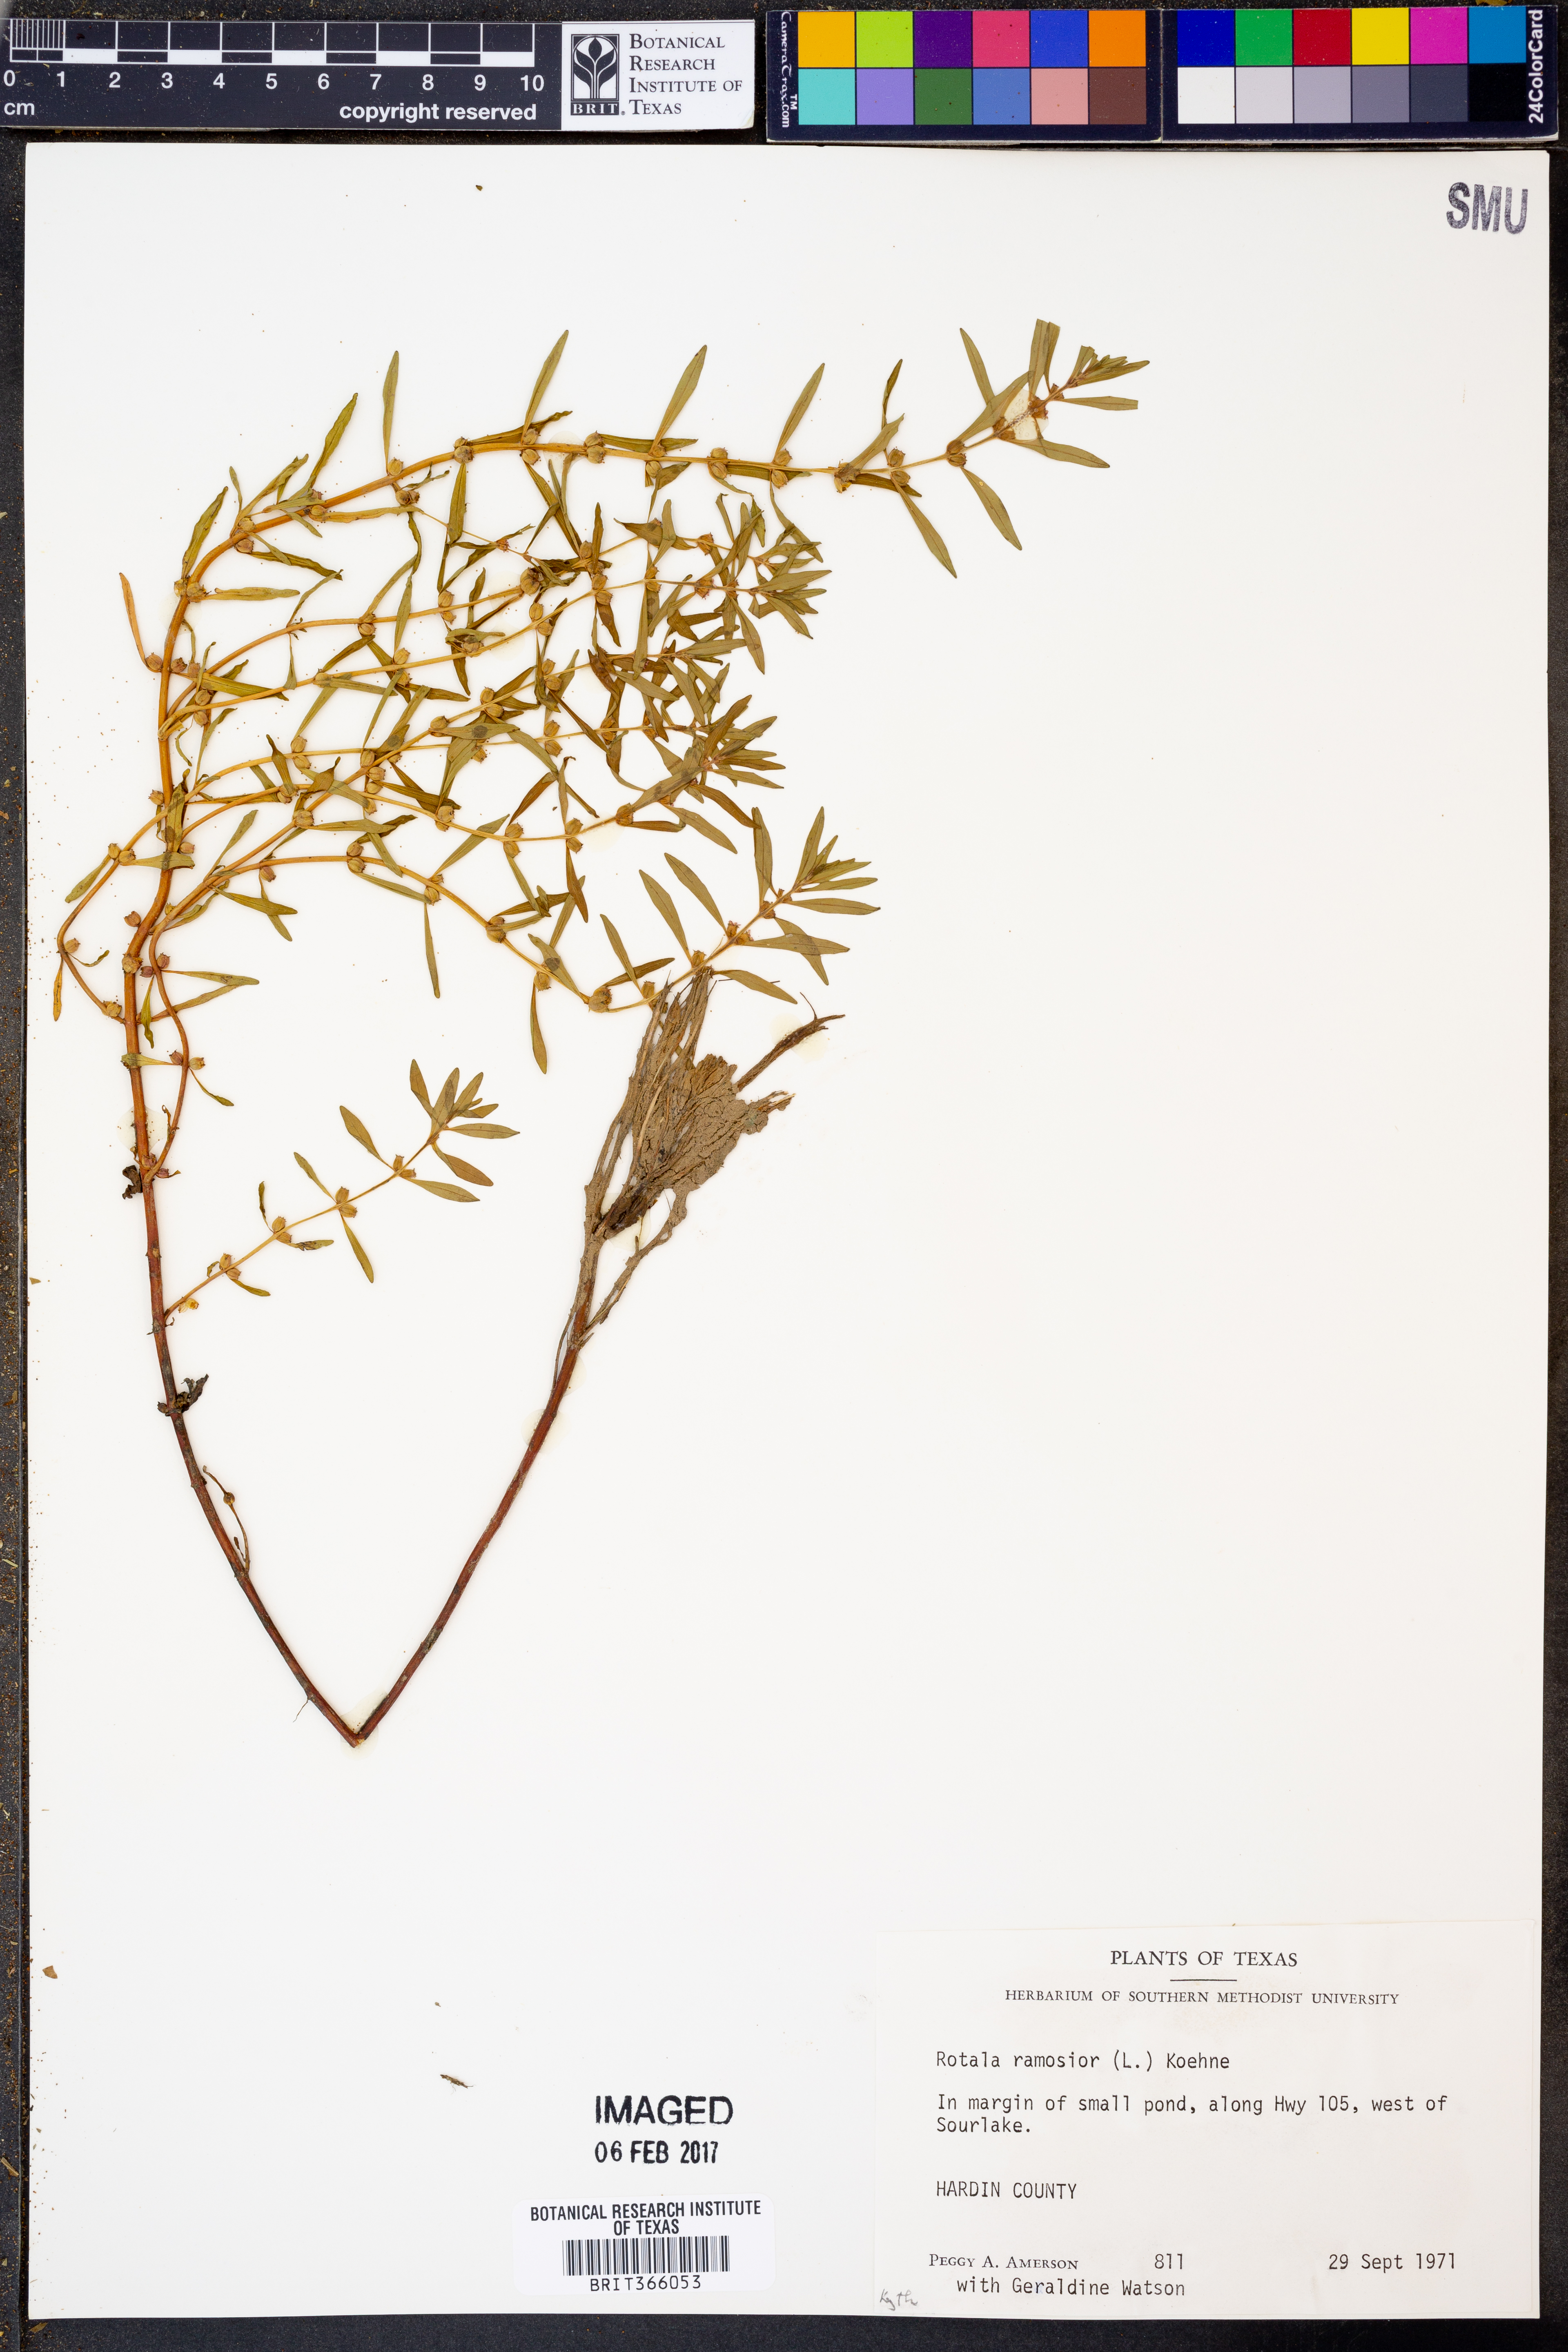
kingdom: Plantae
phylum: Tracheophyta
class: Magnoliopsida
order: Myrtales
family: Lythraceae
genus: Rotala
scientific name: Rotala ramosior
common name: Lowland rotala
